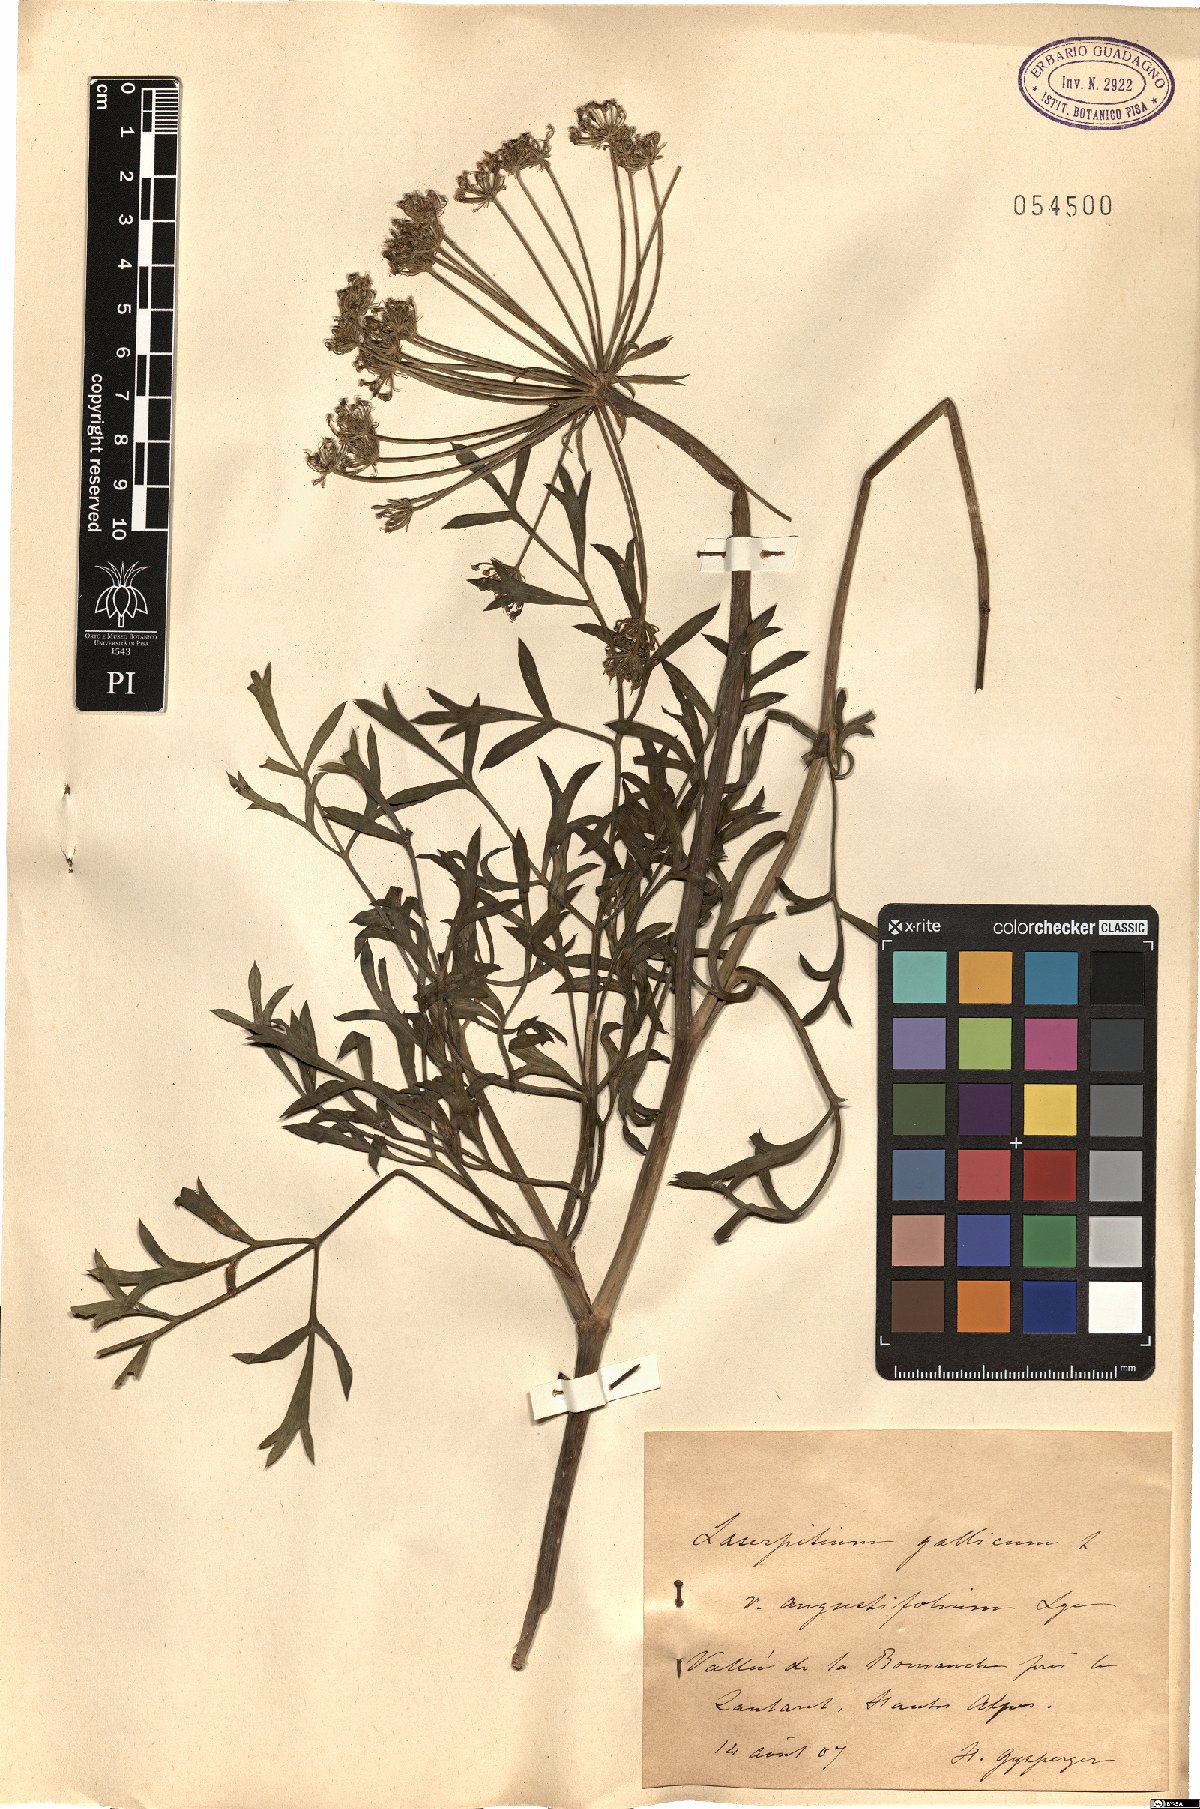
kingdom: Plantae
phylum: Tracheophyta
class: Magnoliopsida
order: Apiales
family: Apiaceae
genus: Laserpitium
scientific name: Laserpitium gallicum
